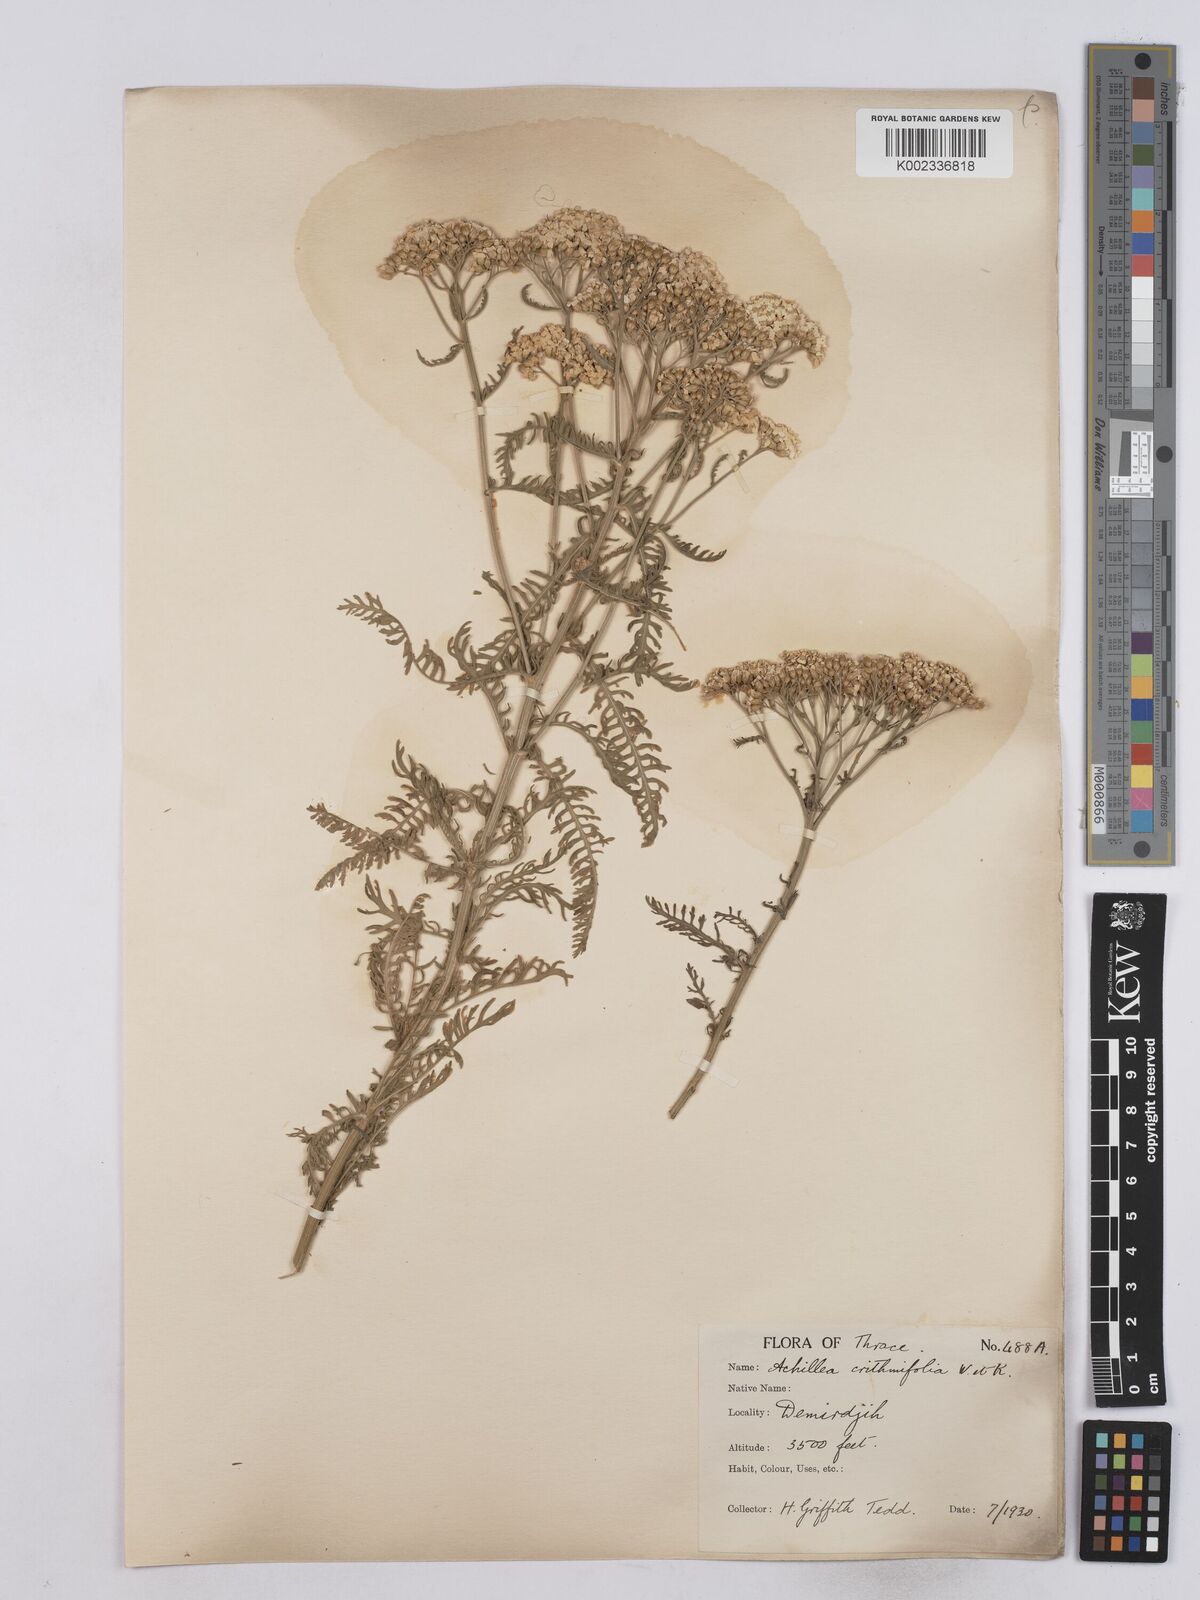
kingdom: Plantae
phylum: Tracheophyta
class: Magnoliopsida
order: Asterales
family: Asteraceae
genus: Achillea
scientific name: Achillea crithmifolia
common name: Yarrow
